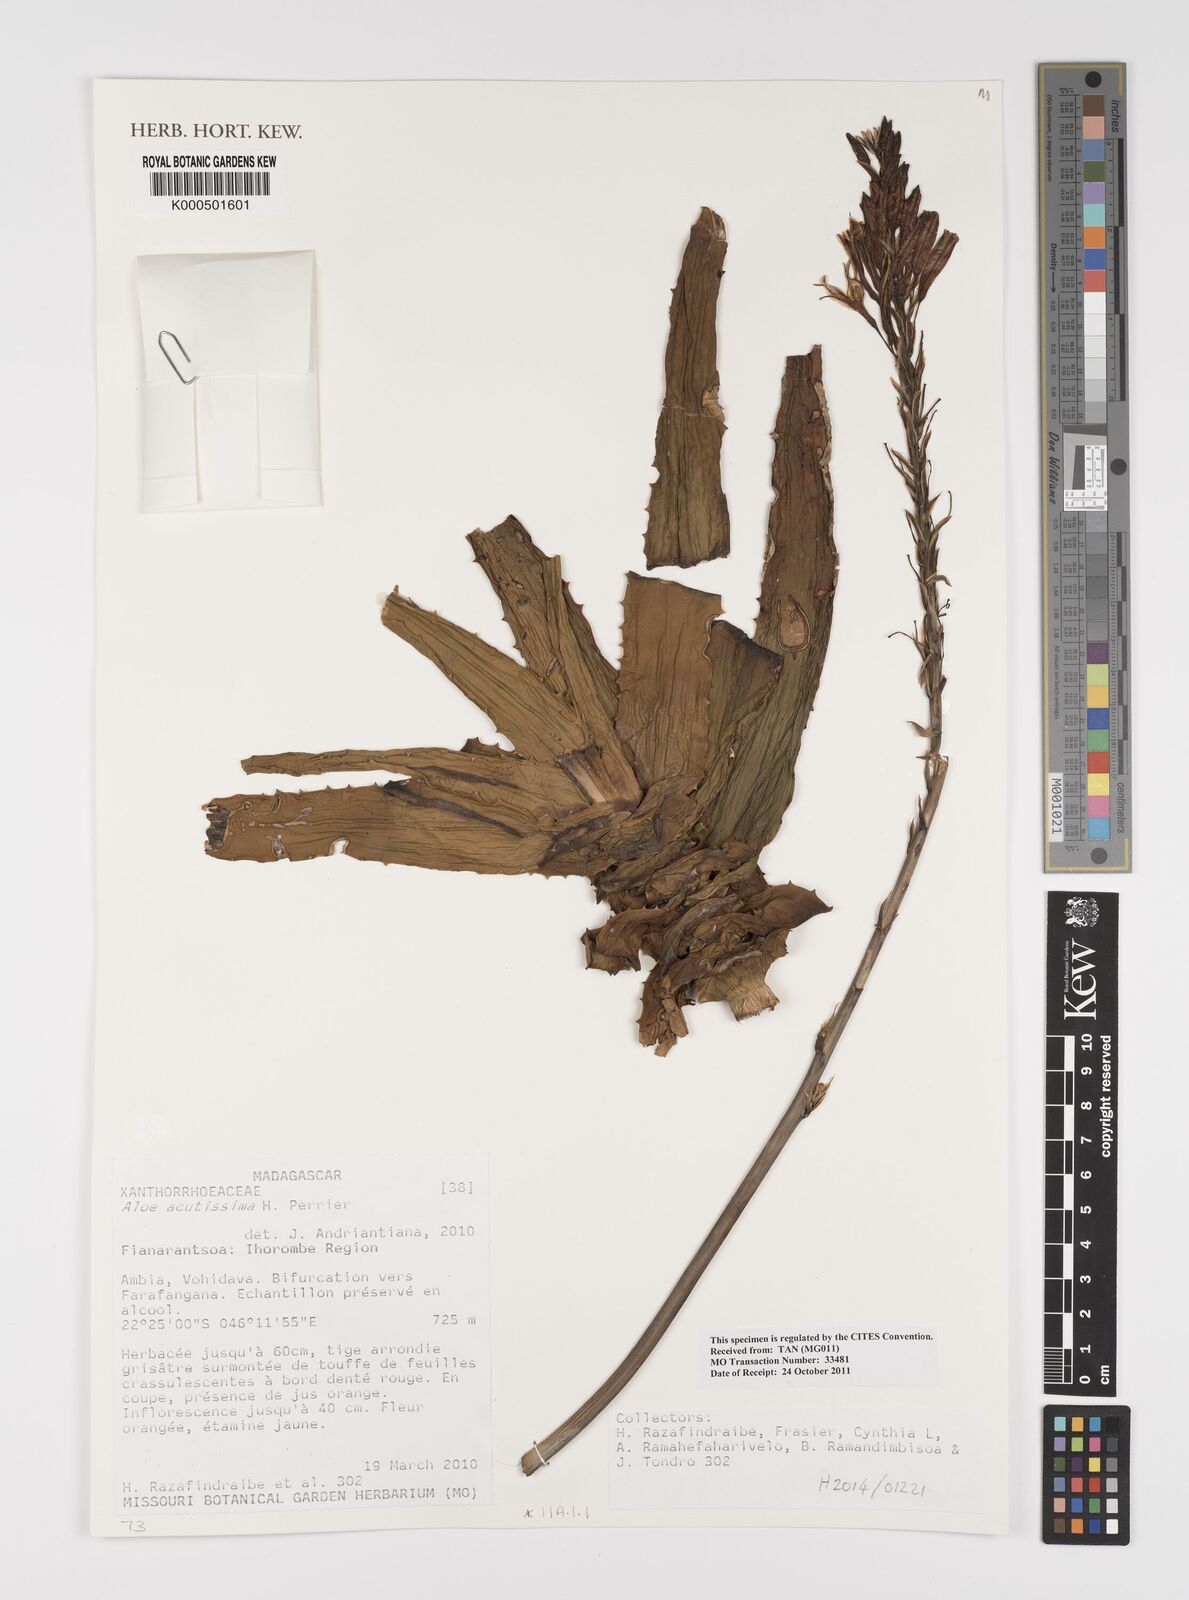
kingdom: Plantae
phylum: Tracheophyta
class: Liliopsida
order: Asparagales
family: Asphodelaceae
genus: Aloe
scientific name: Aloe acutissima
